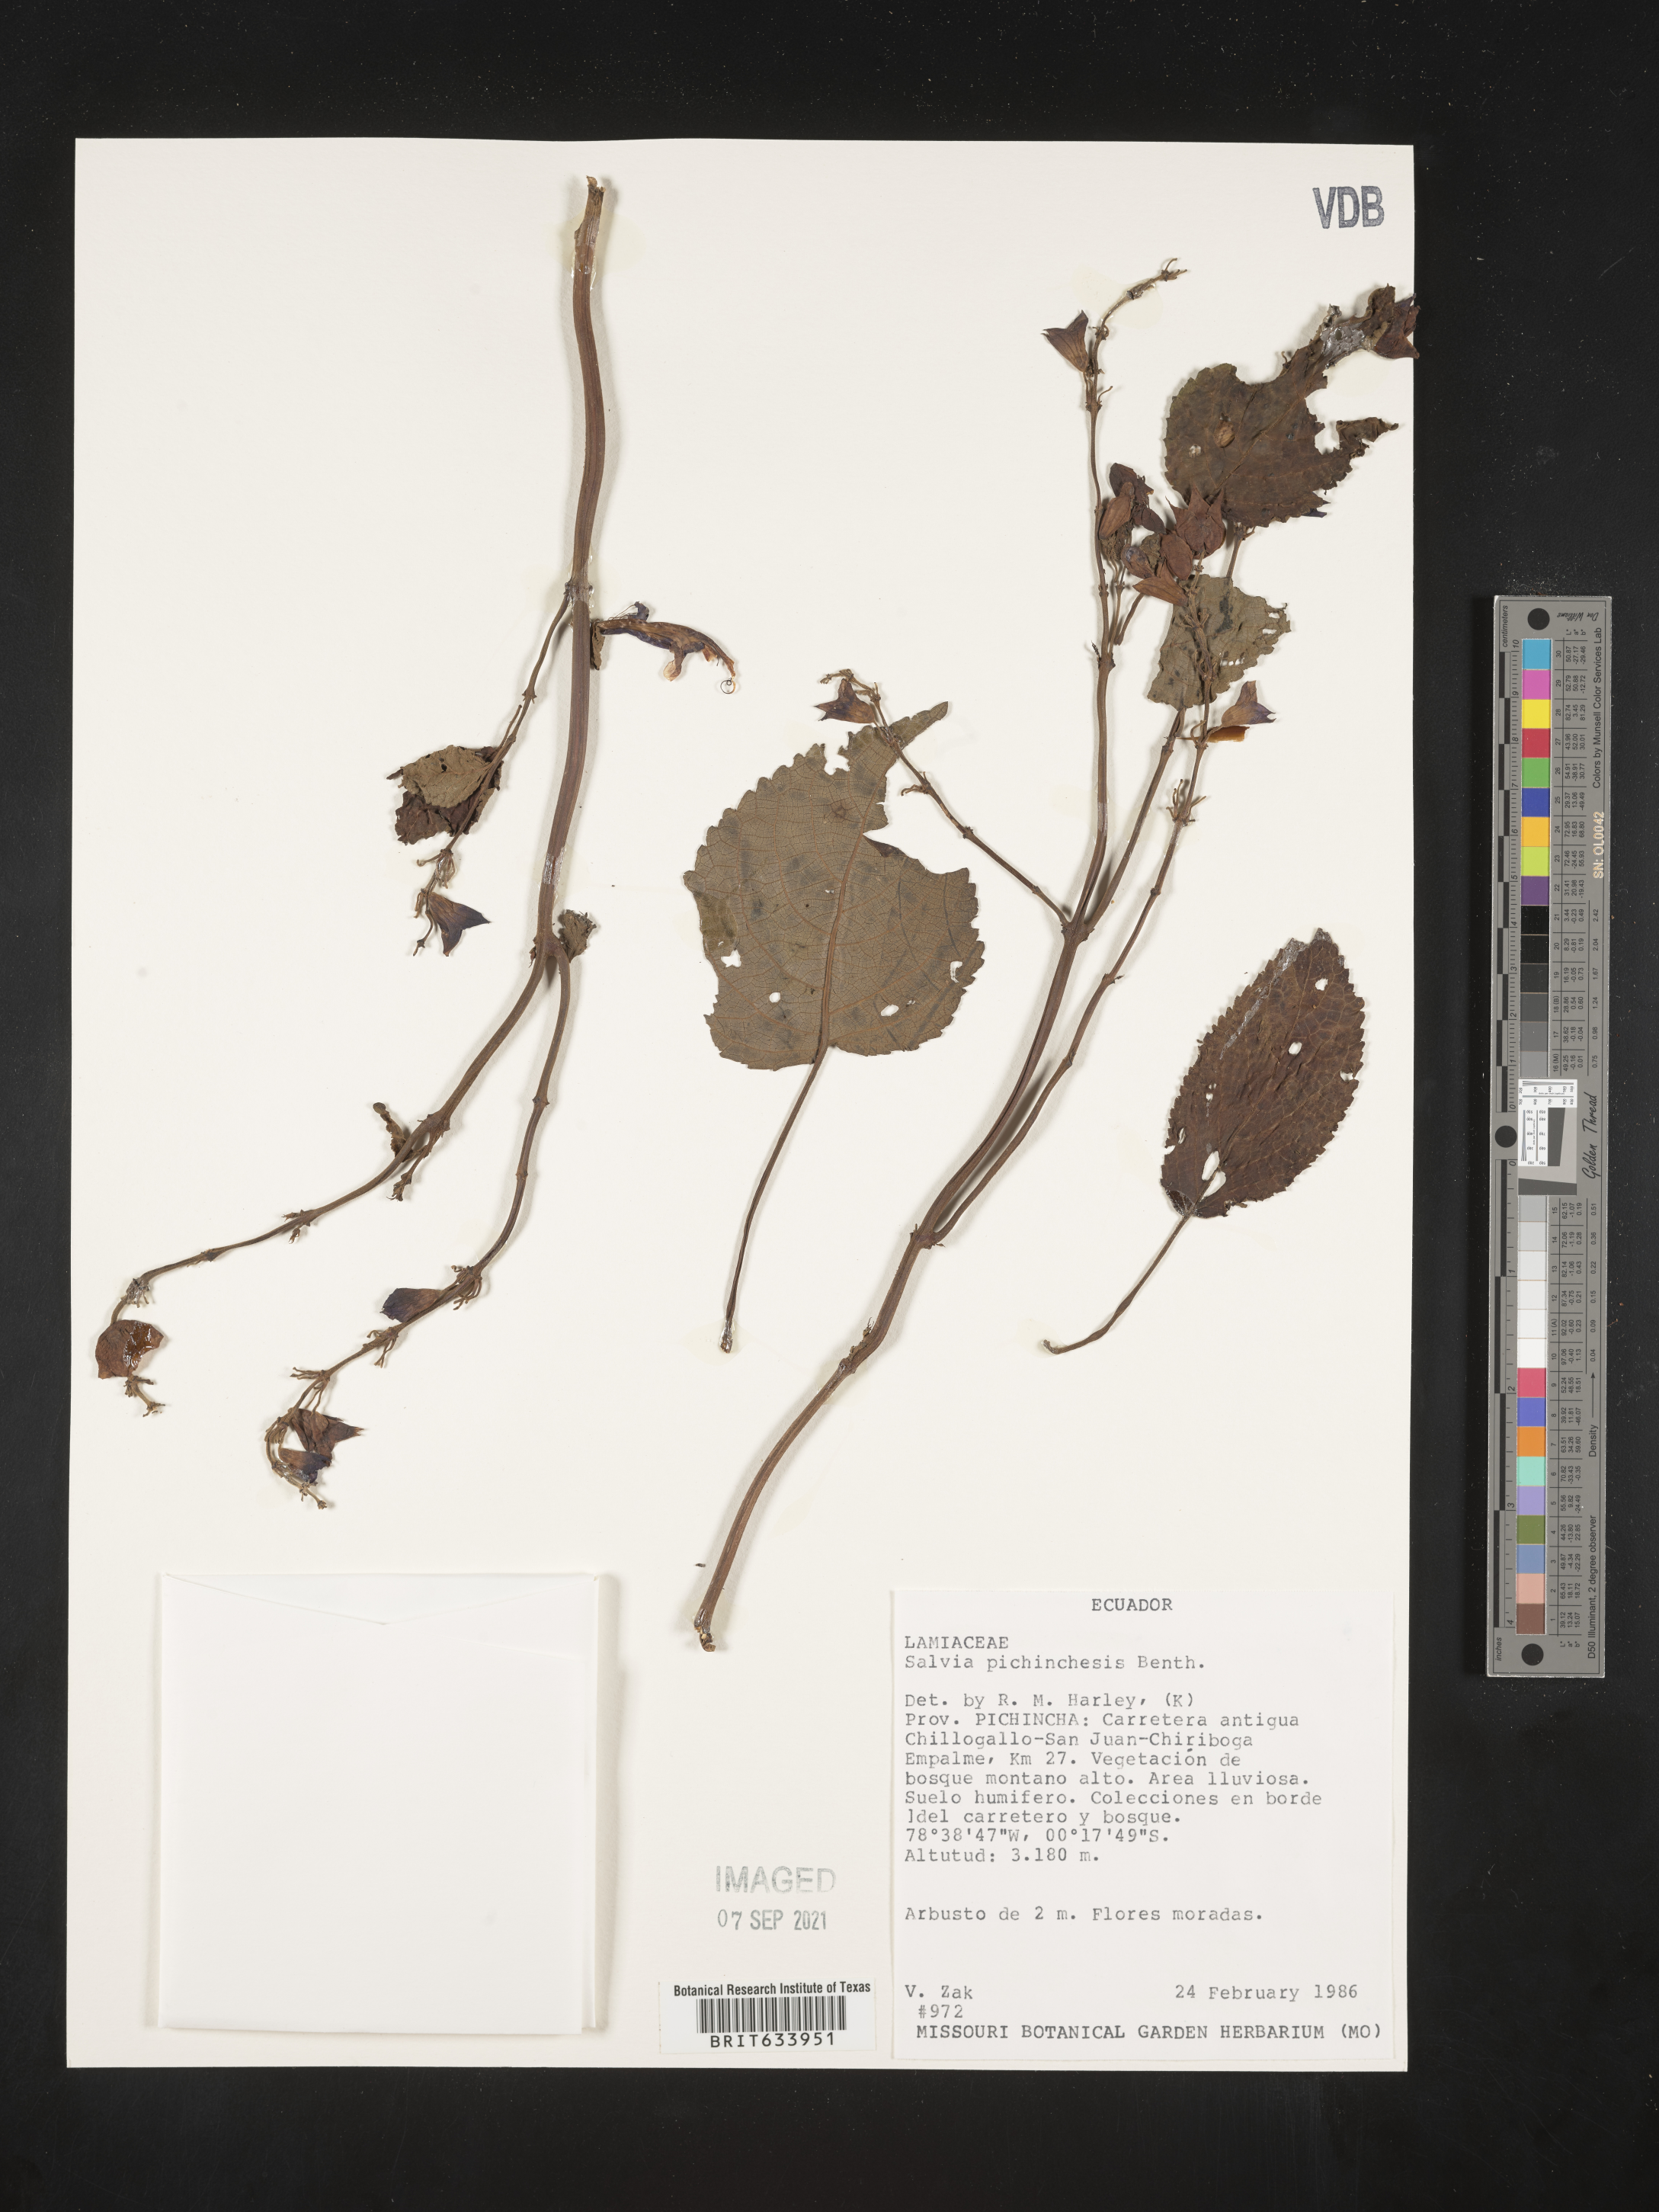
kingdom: Plantae
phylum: Tracheophyta
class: Magnoliopsida
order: Lamiales
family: Lamiaceae
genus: Salvia
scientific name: Salvia
